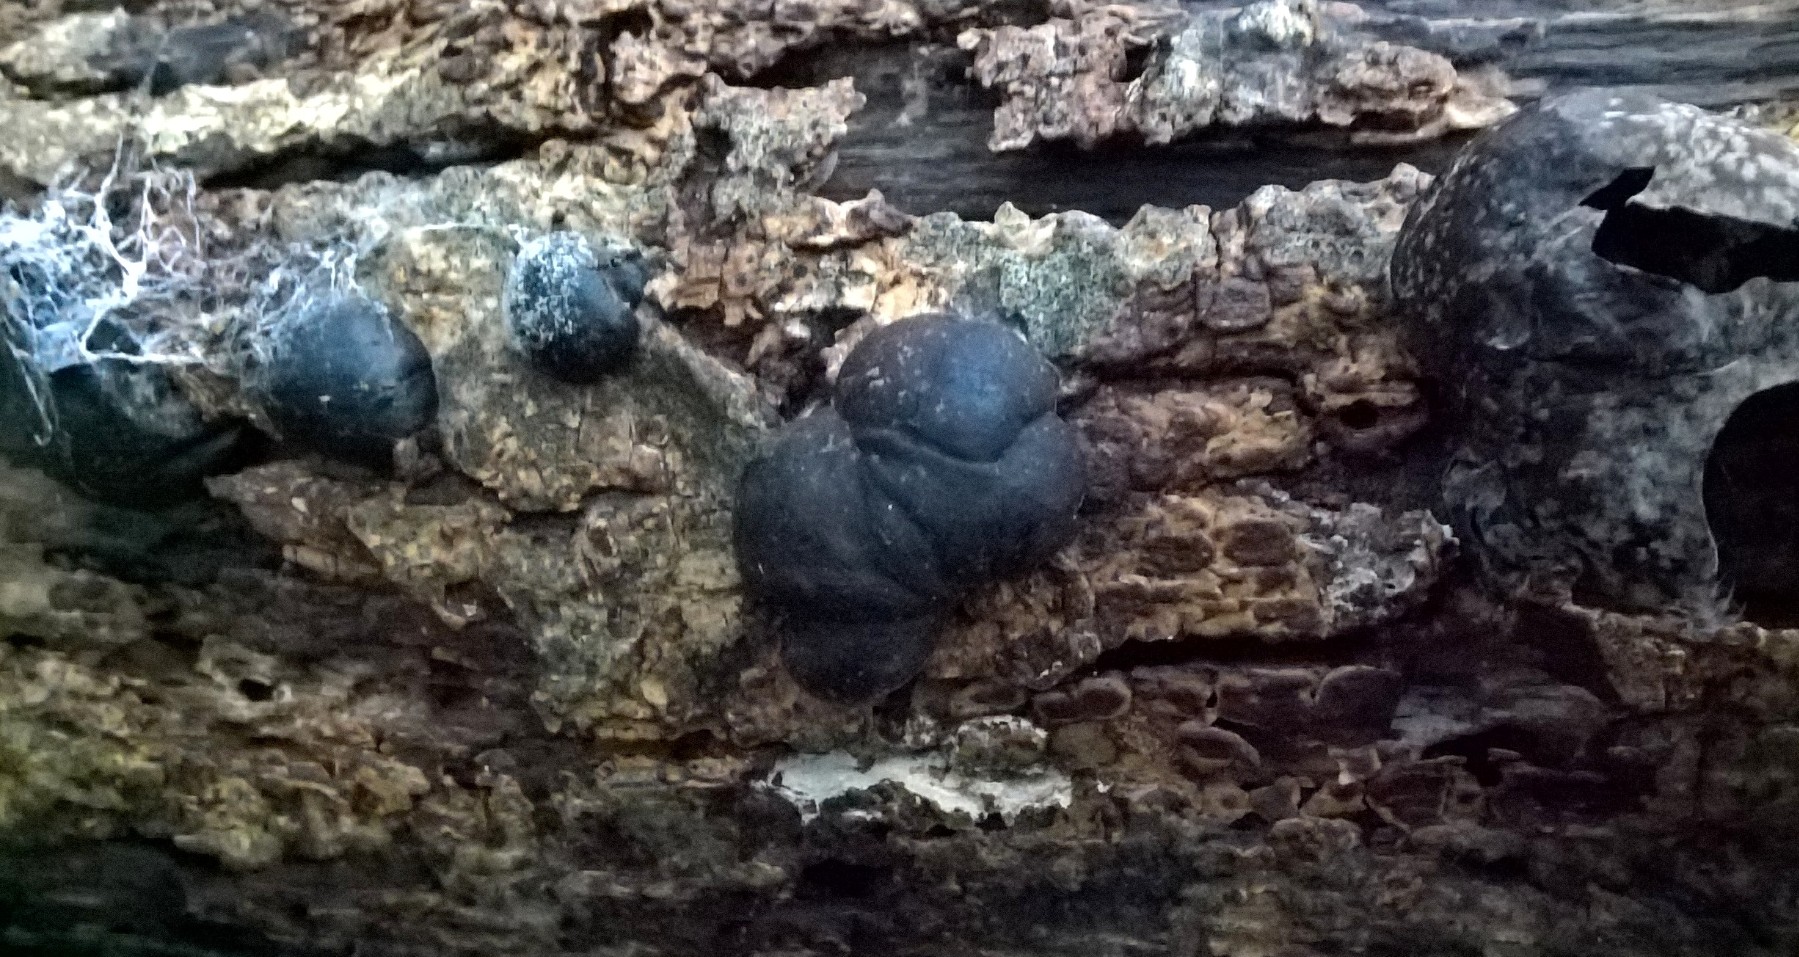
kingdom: Fungi
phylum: Ascomycota
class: Sordariomycetes
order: Xylariales
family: Hypoxylaceae
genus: Daldinia
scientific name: Daldinia concentrica
